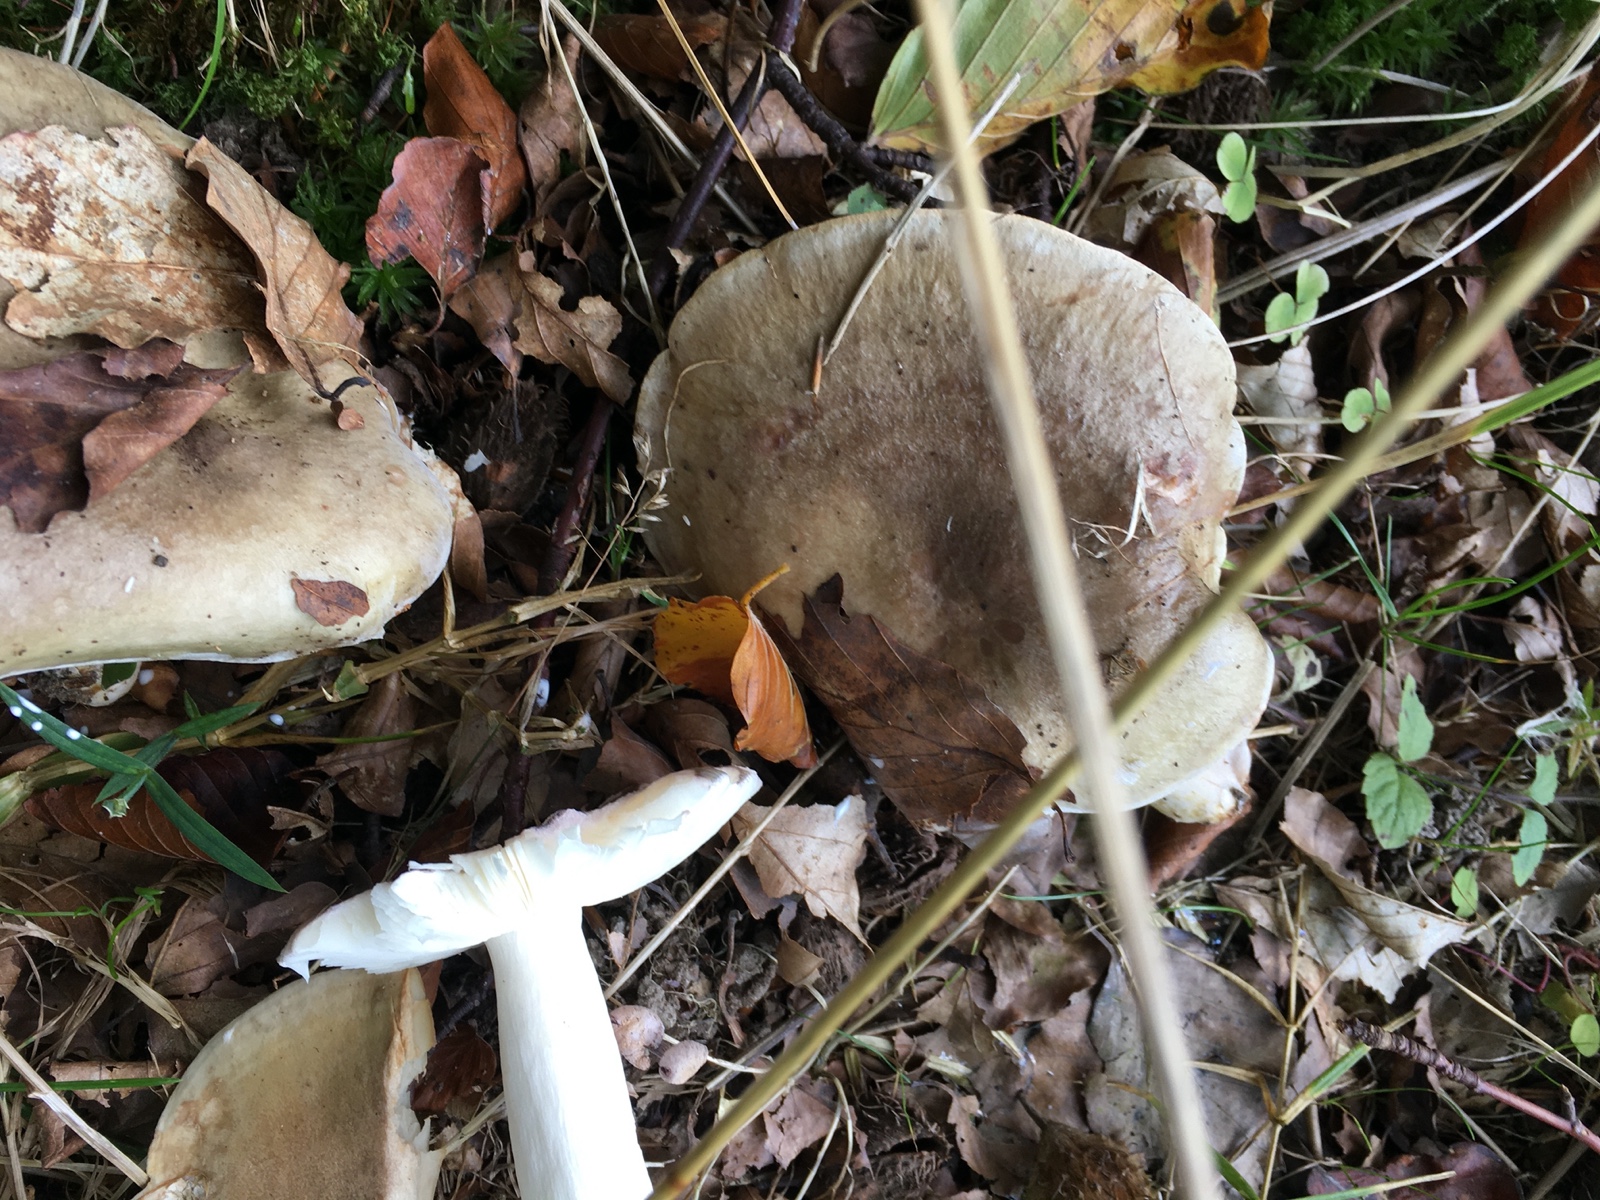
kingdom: Fungi
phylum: Basidiomycota
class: Agaricomycetes
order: Russulales
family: Russulaceae
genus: Lactarius
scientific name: Lactarius blennius
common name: dråbeplettet mælkehat
